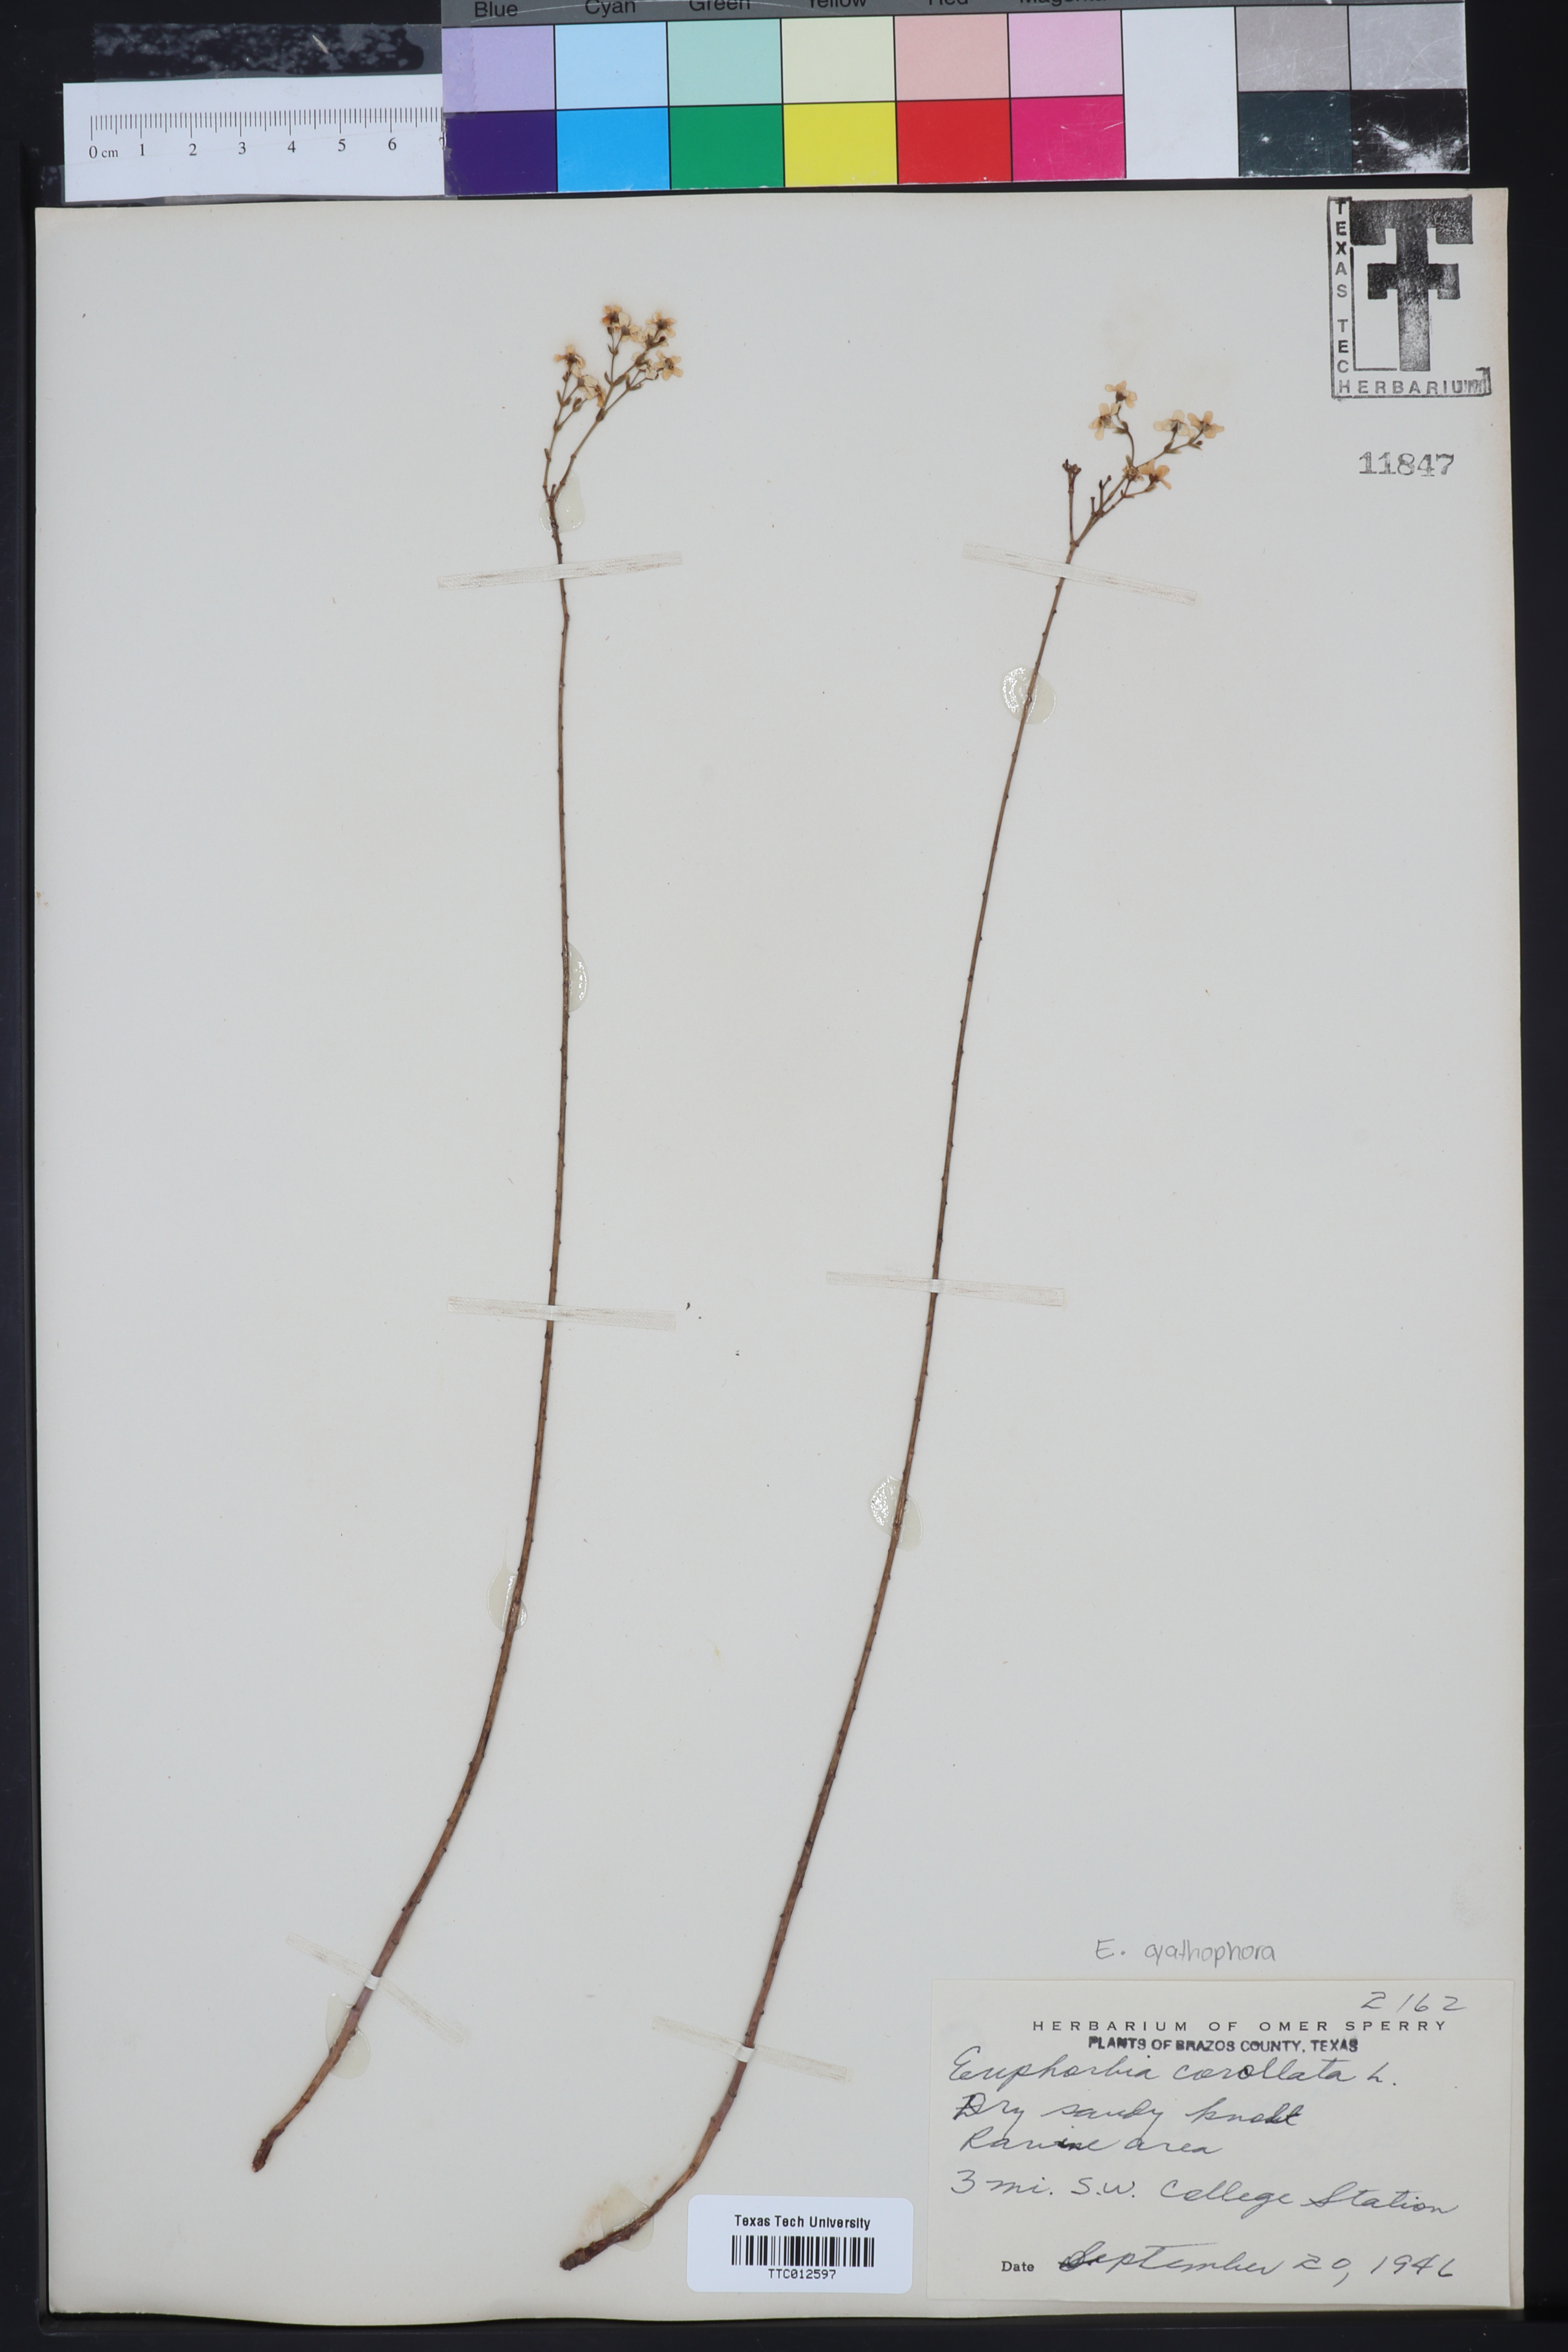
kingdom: Plantae
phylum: Tracheophyta
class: Magnoliopsida
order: Malpighiales
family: Euphorbiaceae
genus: Euphorbia
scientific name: Euphorbia corollata
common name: Flowering spurge
